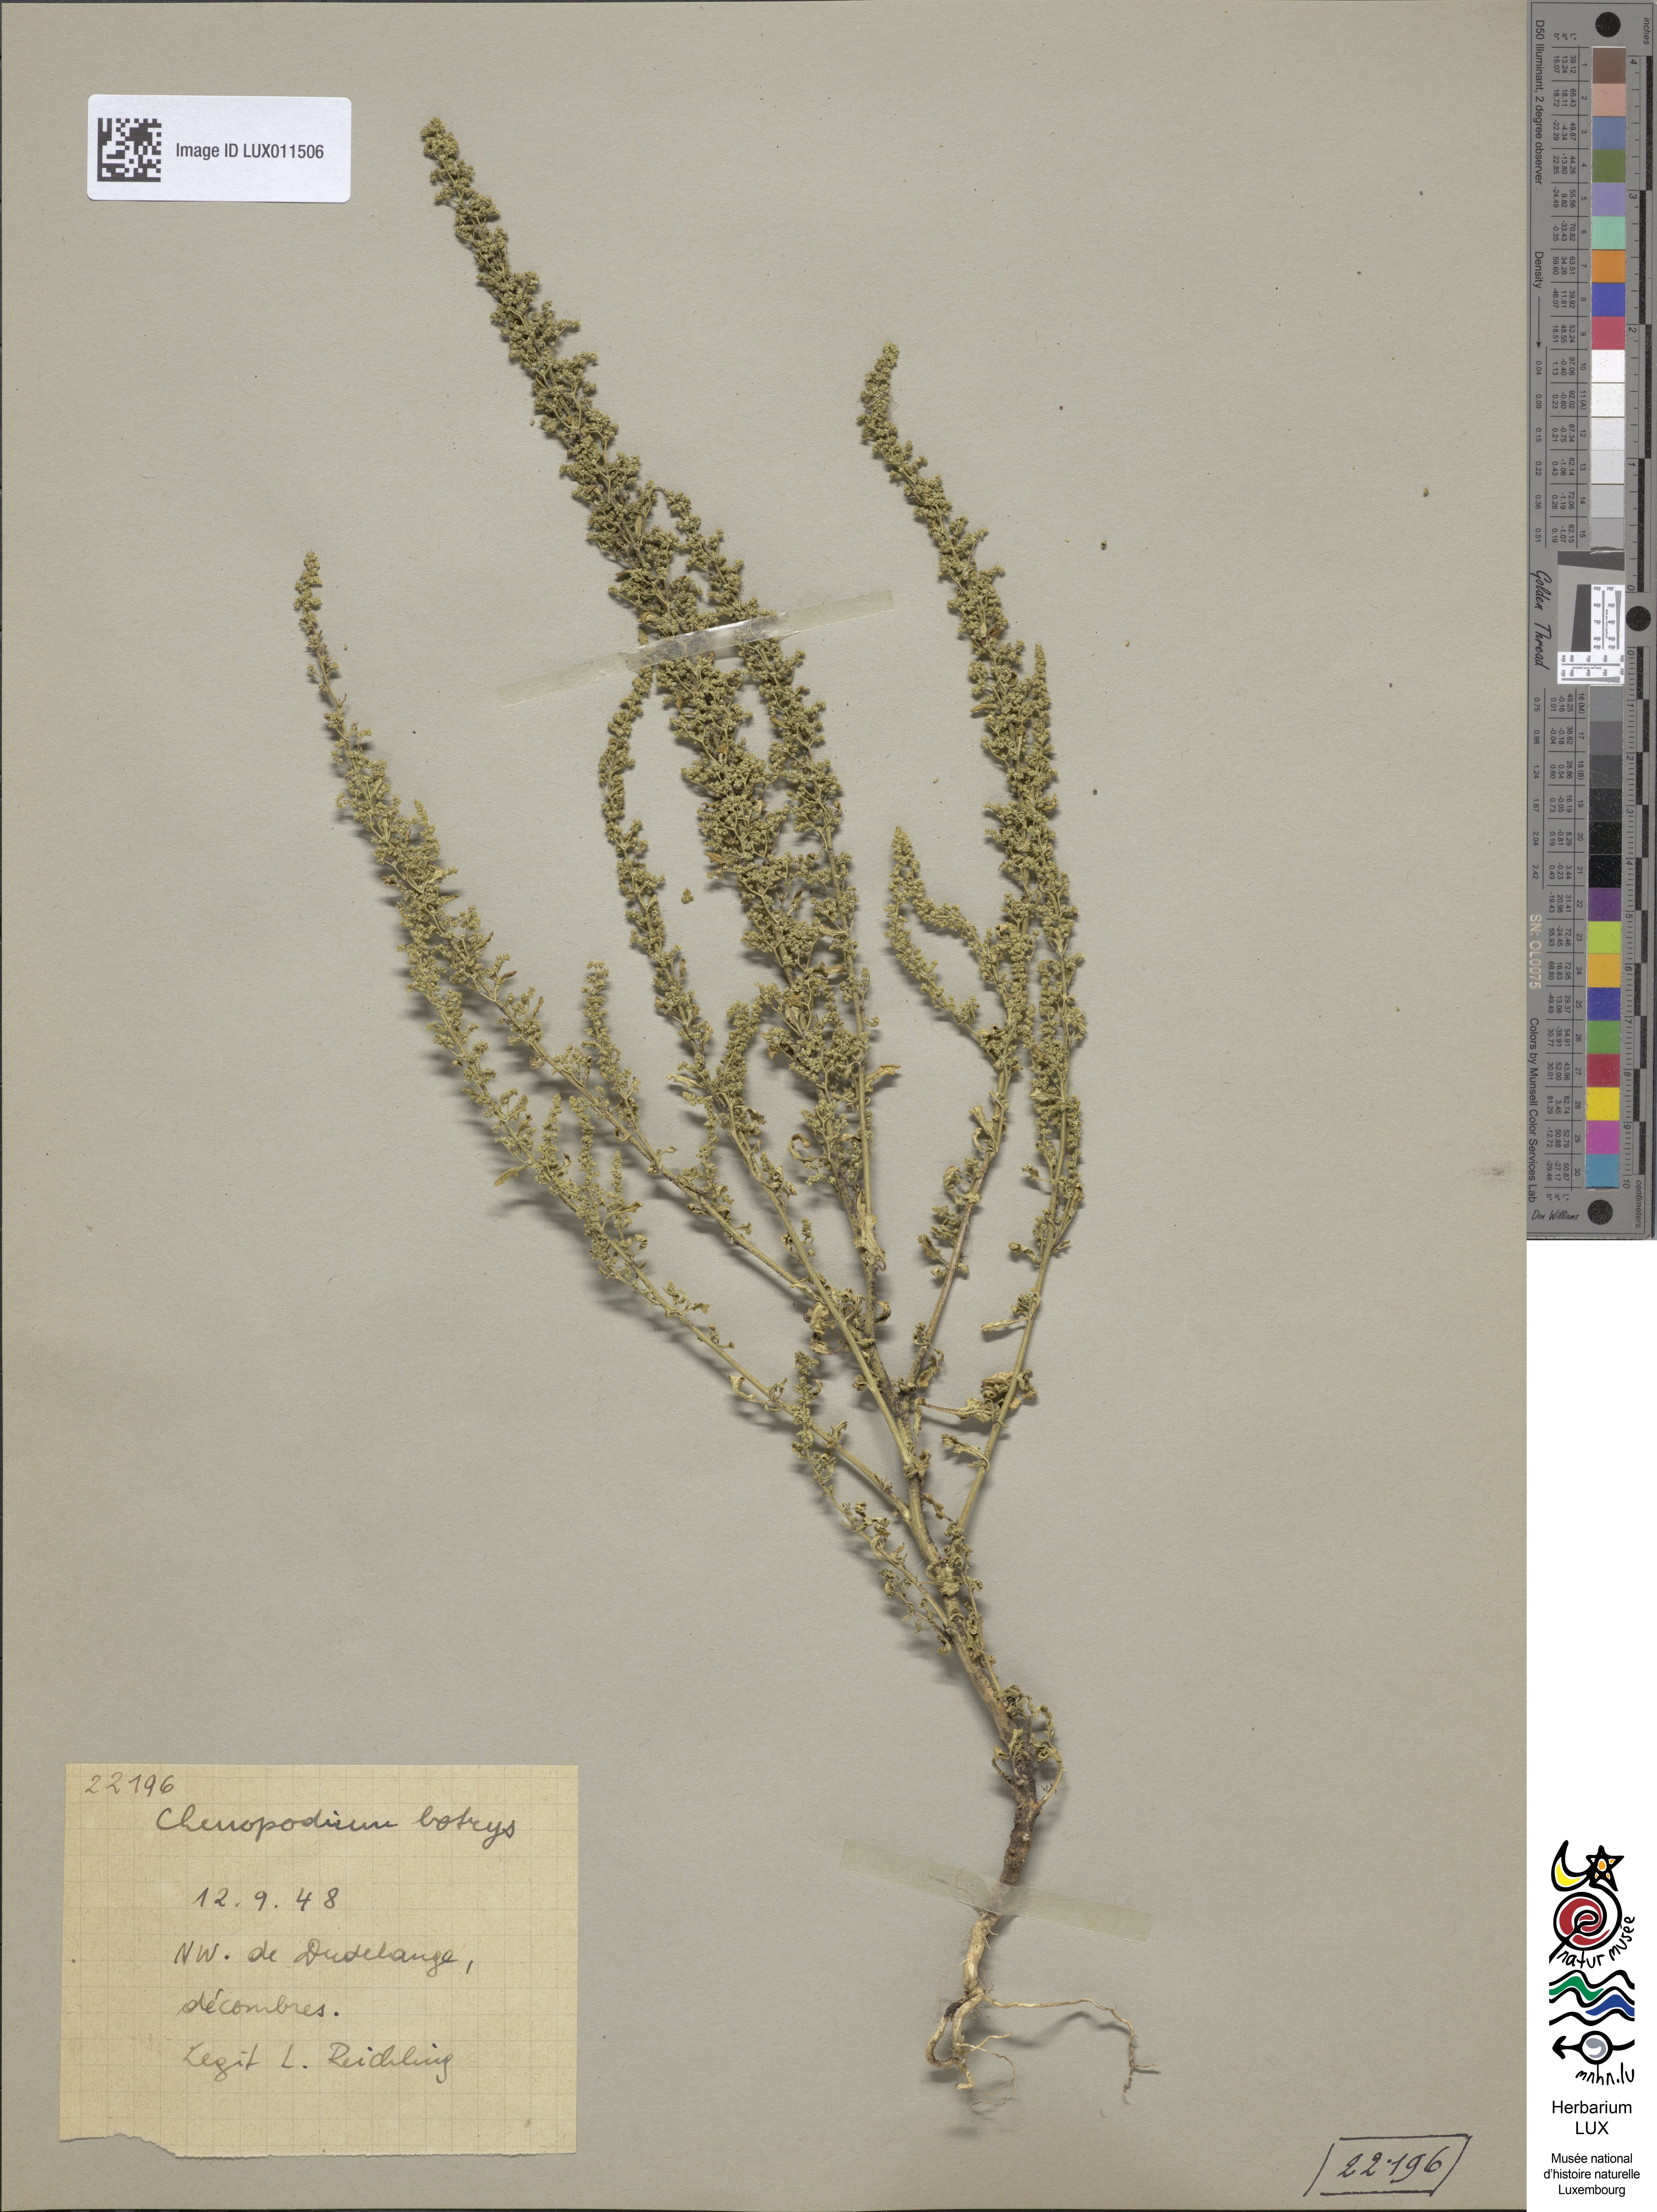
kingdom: Plantae
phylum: Tracheophyta
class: Magnoliopsida
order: Caryophyllales
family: Amaranthaceae
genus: Dysphania
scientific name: Dysphania botrys
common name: Feather-geranium
